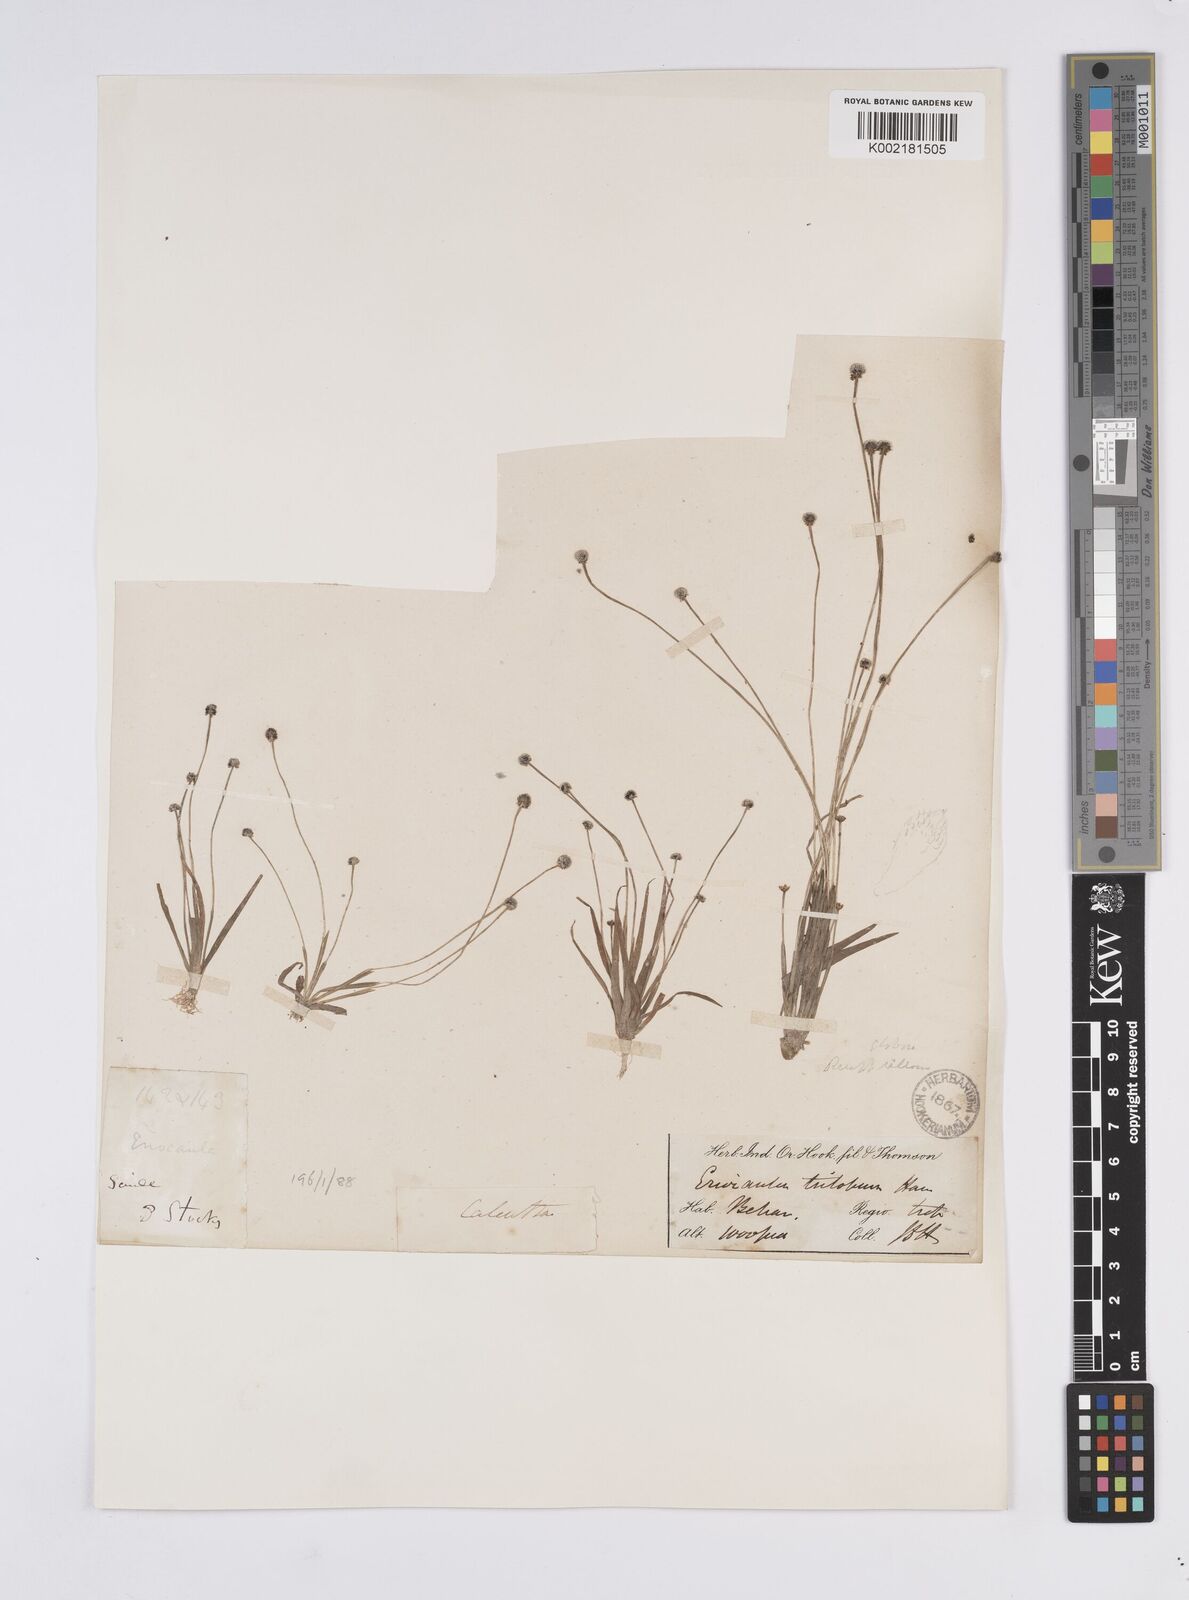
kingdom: Plantae
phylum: Tracheophyta
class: Liliopsida
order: Poales
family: Eriocaulaceae
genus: Eriocaulon
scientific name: Eriocaulon sollyanum
